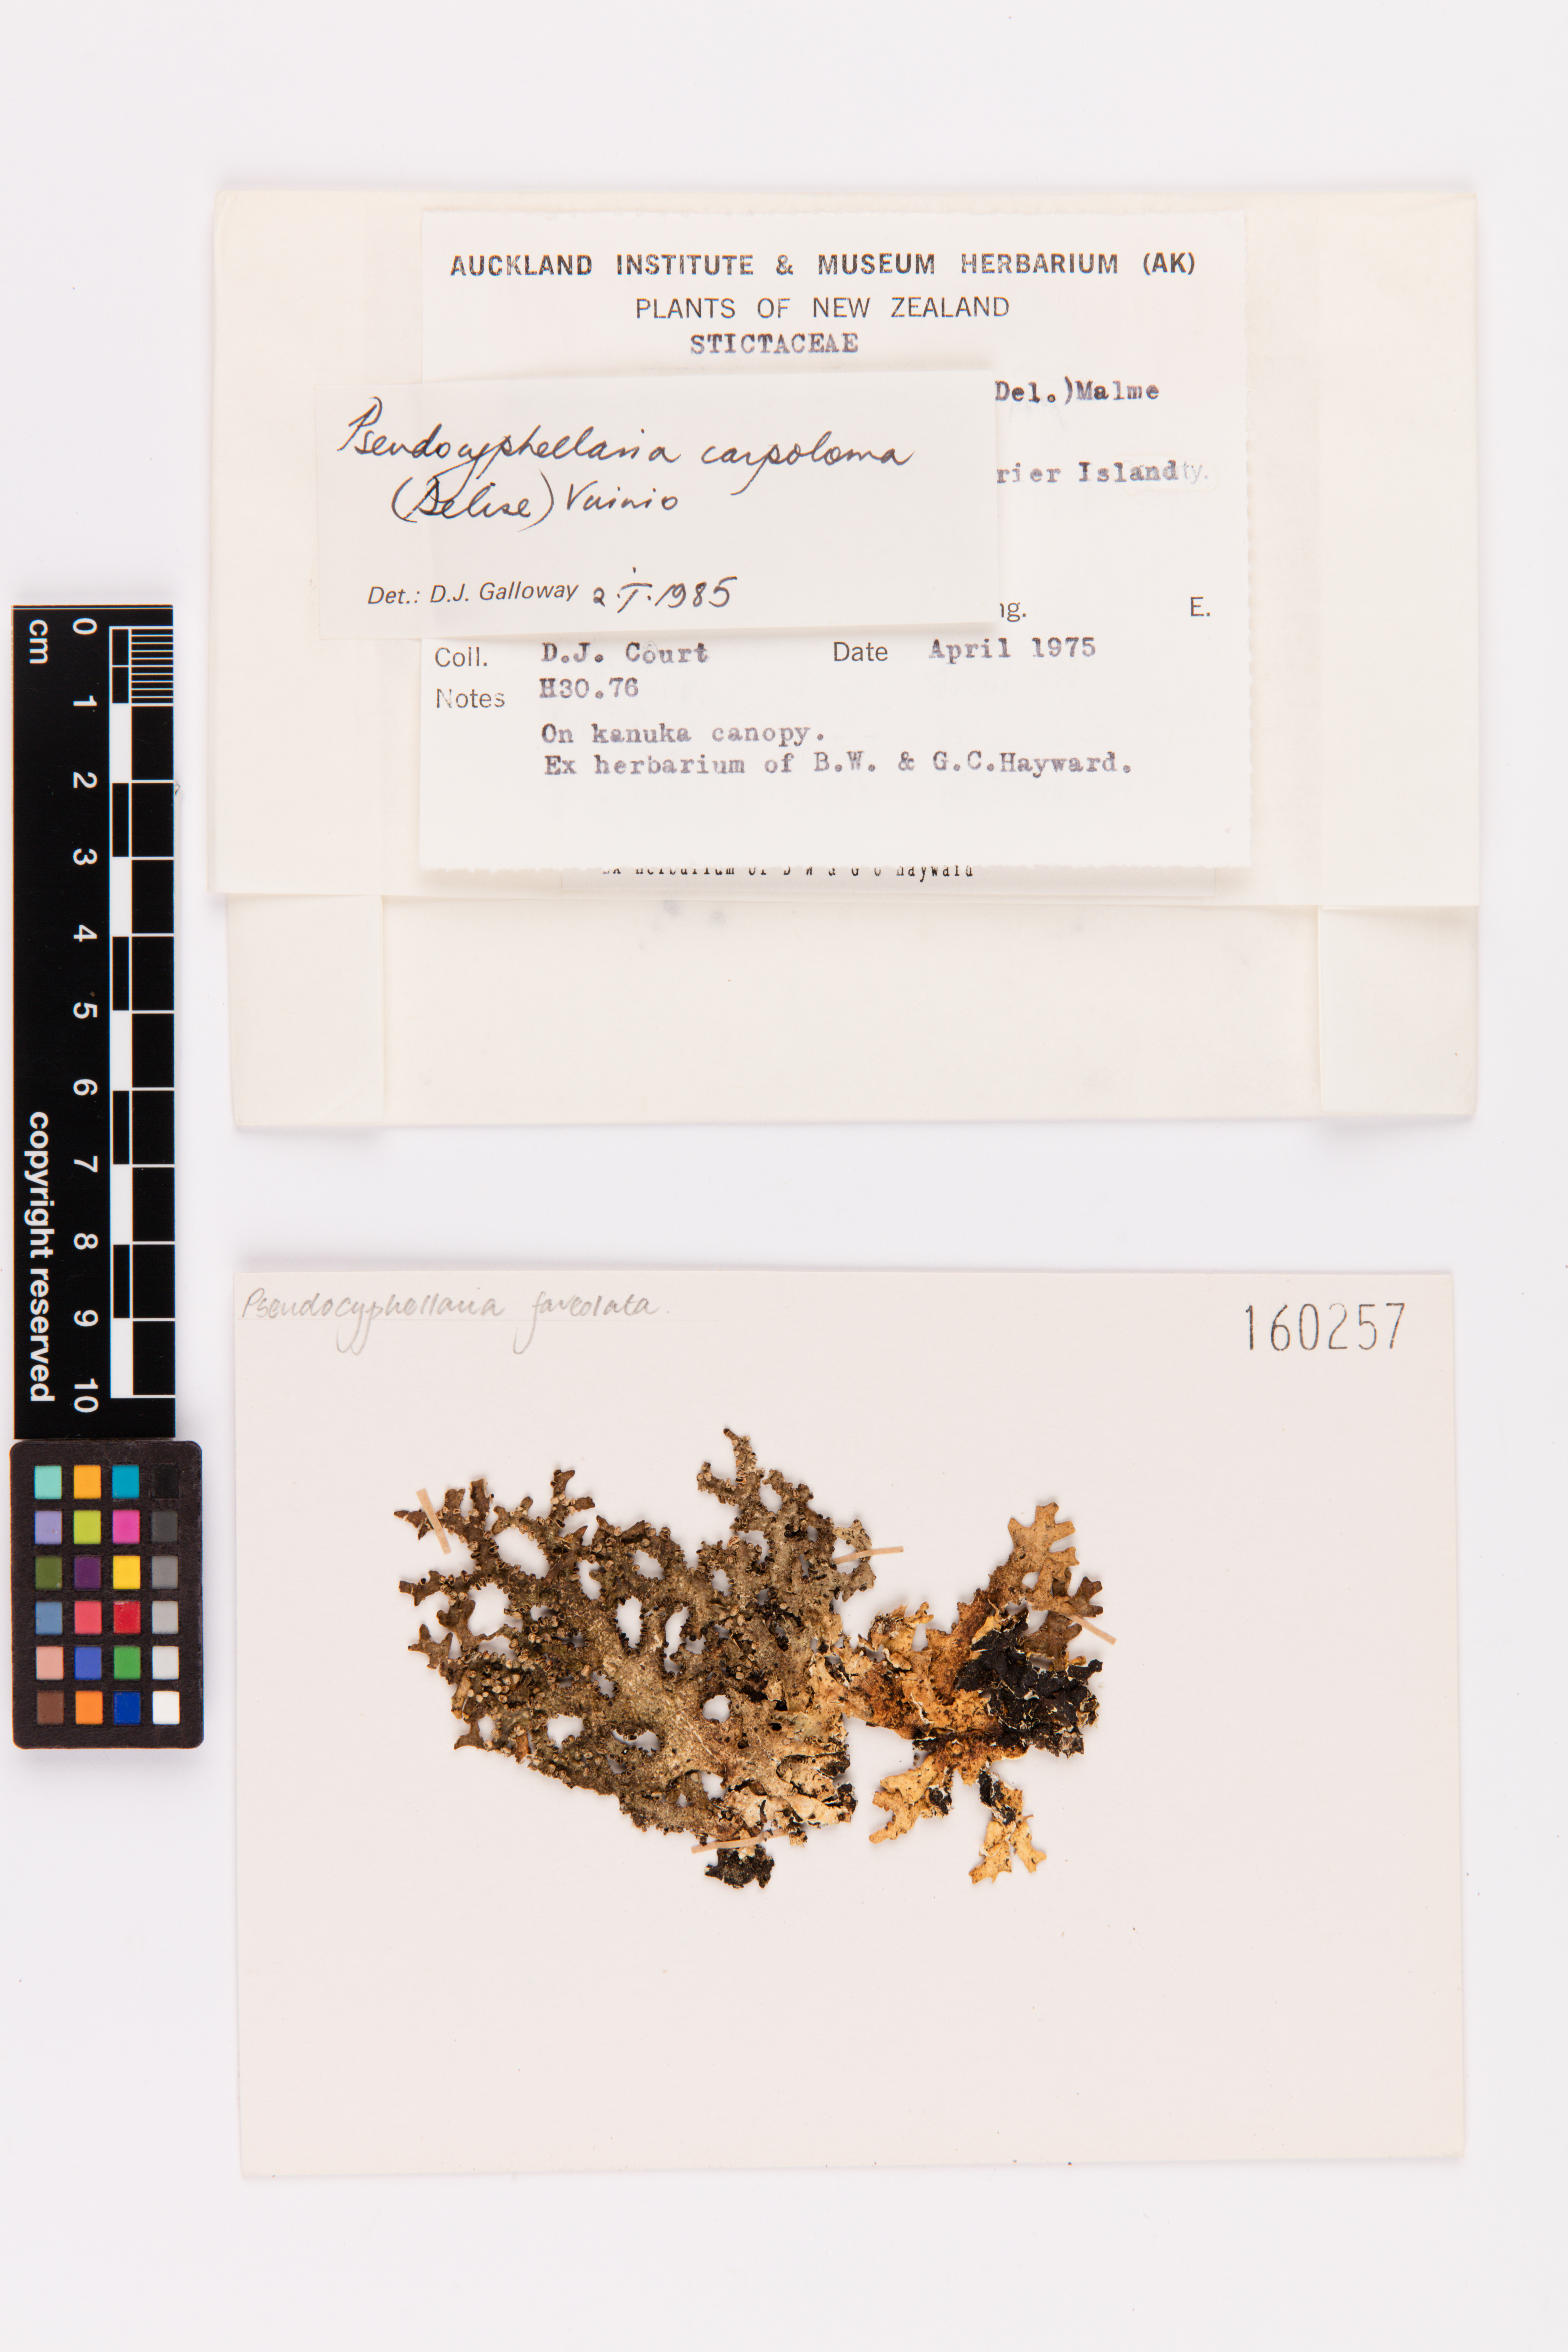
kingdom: Fungi
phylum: Ascomycota
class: Lecanoromycetes
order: Peltigerales
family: Lobariaceae
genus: Pseudocyphellaria
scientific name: Pseudocyphellaria carpoloma
